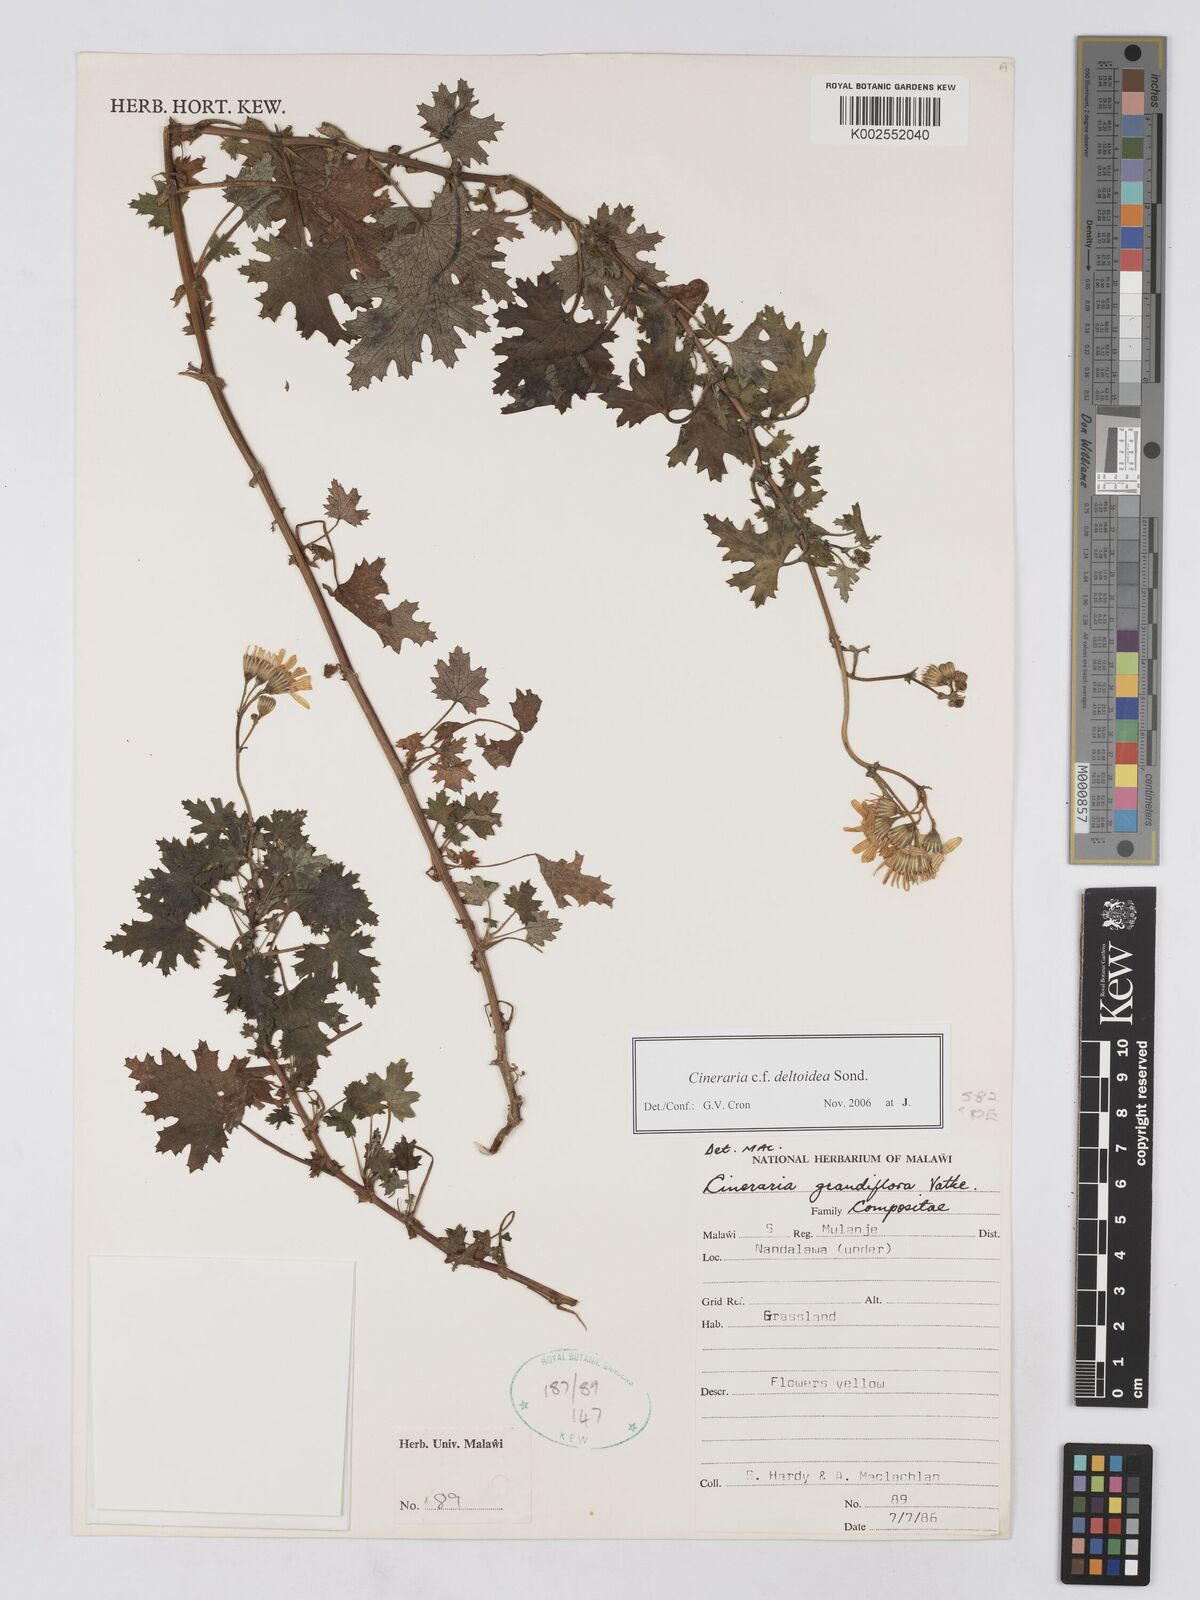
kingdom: Plantae
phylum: Tracheophyta
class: Magnoliopsida
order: Asterales
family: Asteraceae
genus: Cineraria
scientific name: Cineraria deltoidea
